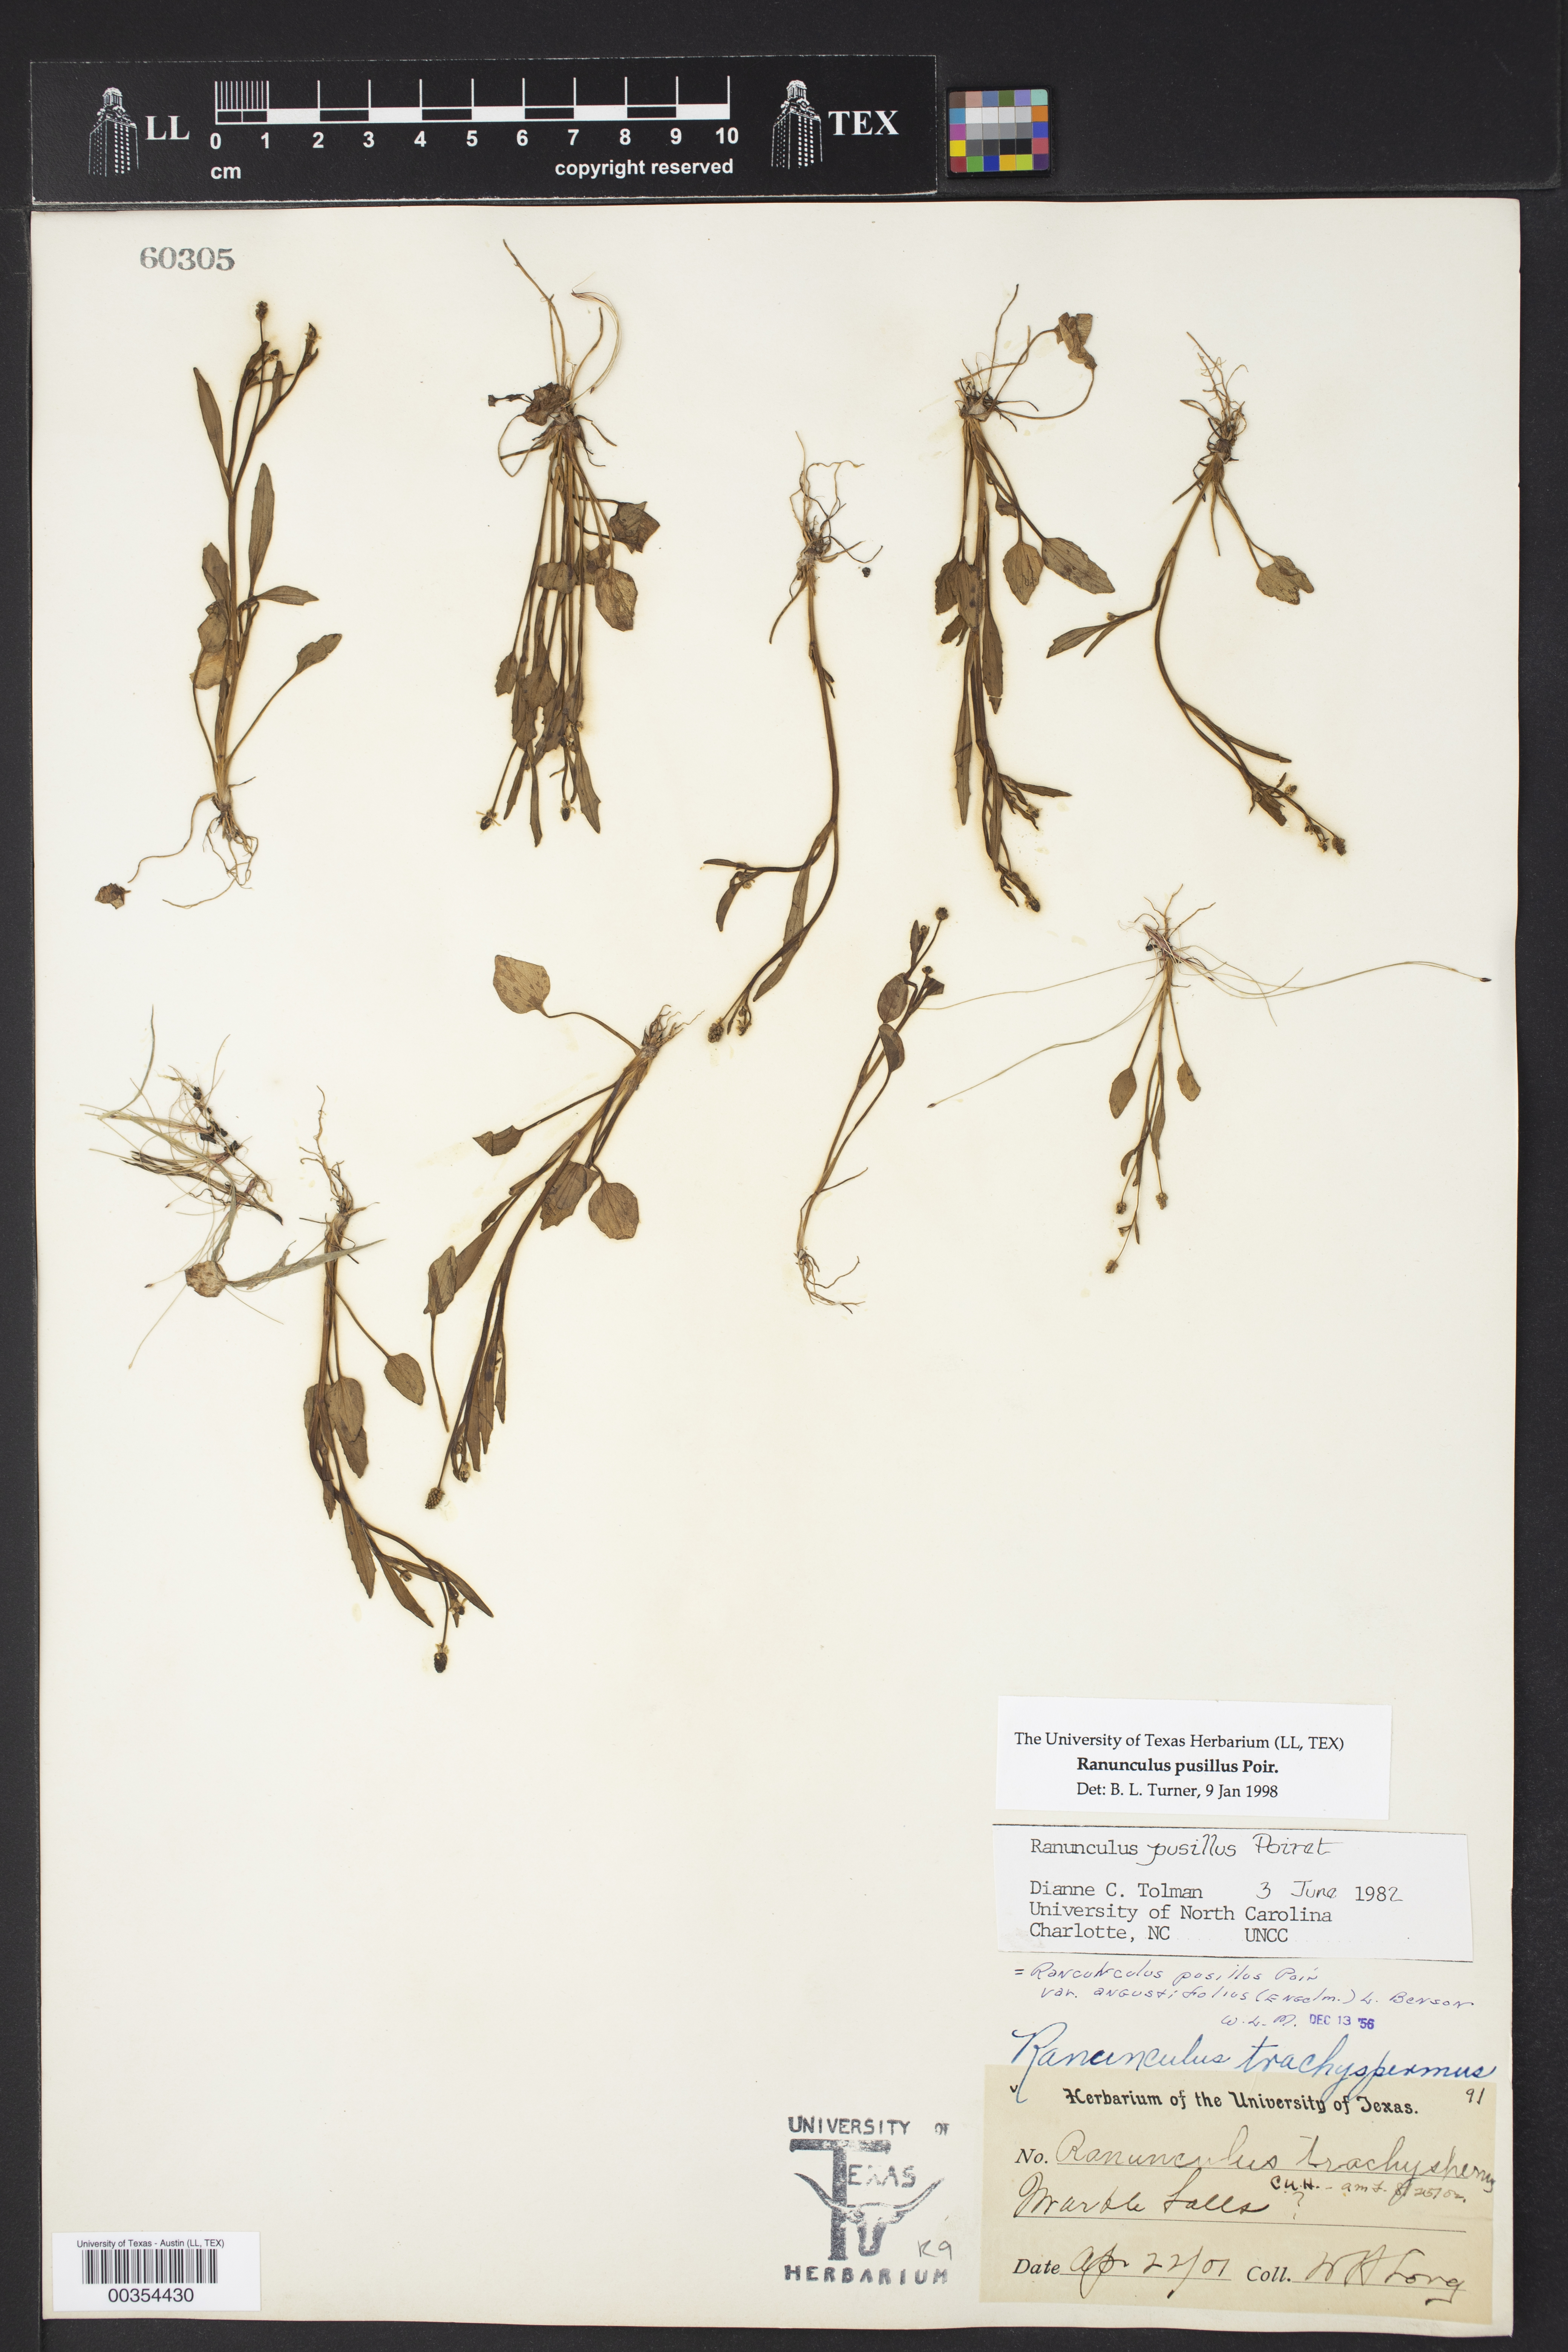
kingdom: Plantae
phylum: Tracheophyta
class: Magnoliopsida
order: Ranunculales
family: Ranunculaceae
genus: Ranunculus
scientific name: Ranunculus pusillus
